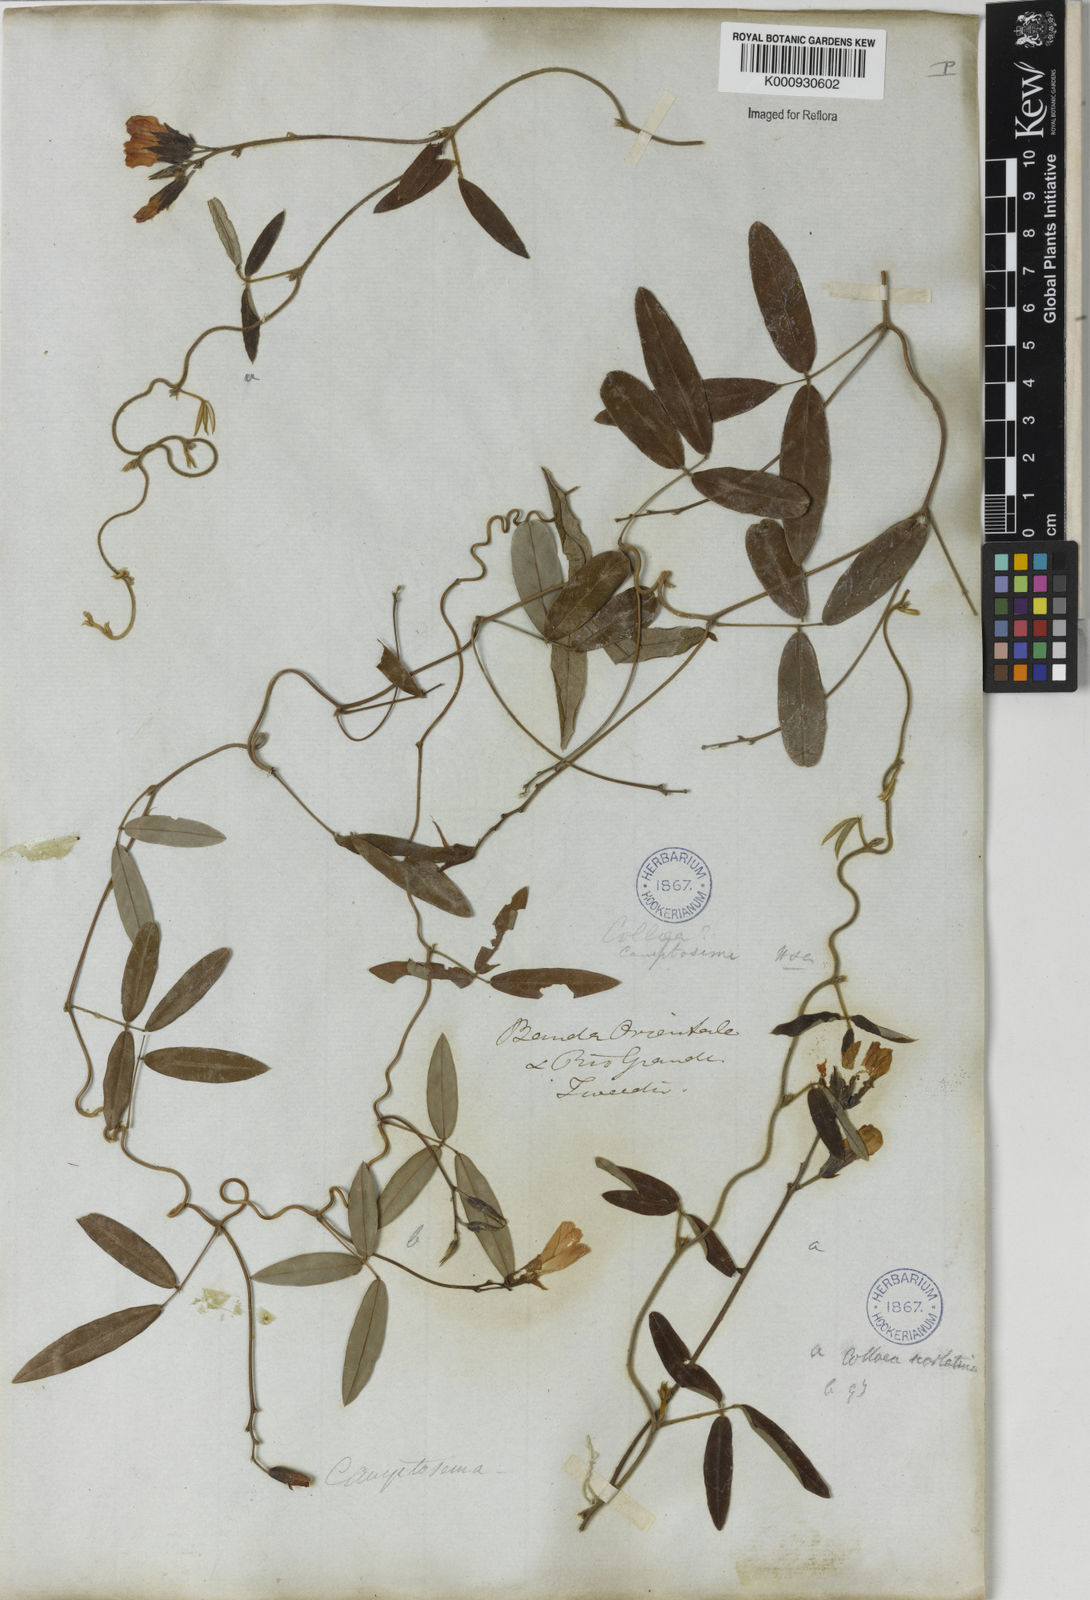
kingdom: Plantae
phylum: Tracheophyta
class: Magnoliopsida
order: Fabales
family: Fabaceae
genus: Betencourtia
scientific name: Betencourtia scarlatina
